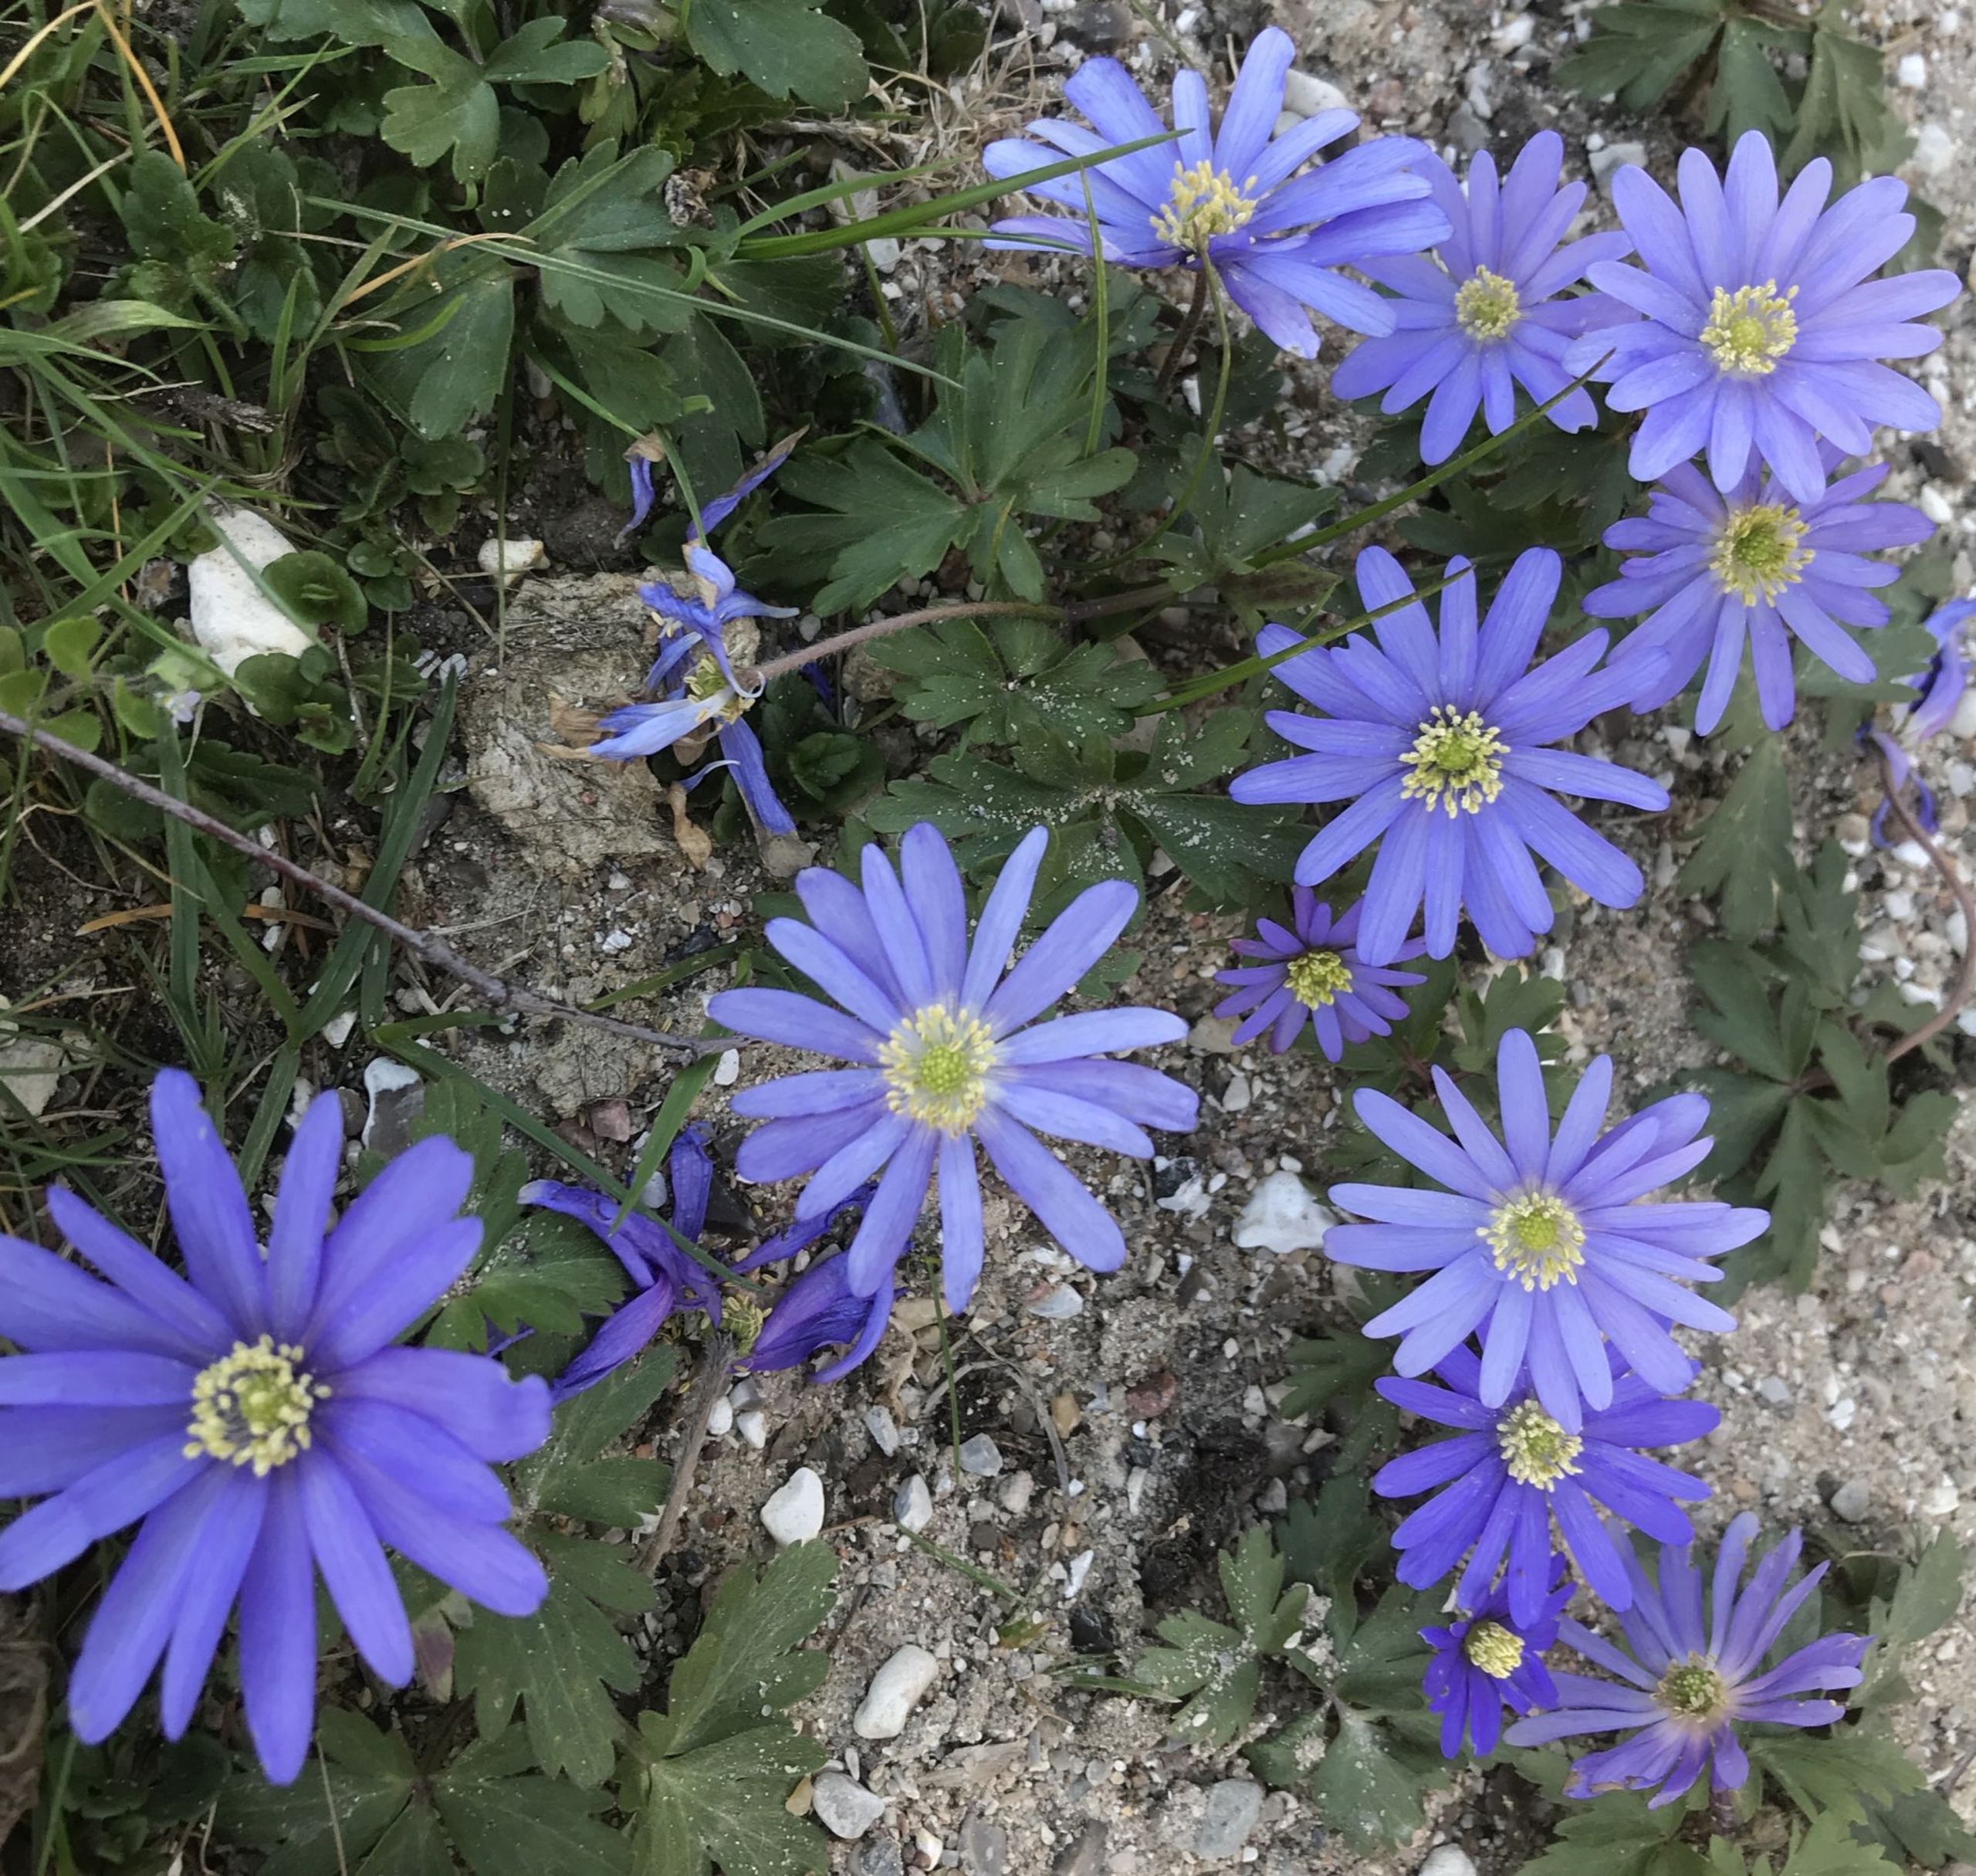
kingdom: Plantae
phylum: Tracheophyta
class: Magnoliopsida
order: Ranunculales
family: Ranunculaceae
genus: Anemone
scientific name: Anemone blanda
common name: Balkan-anemone
